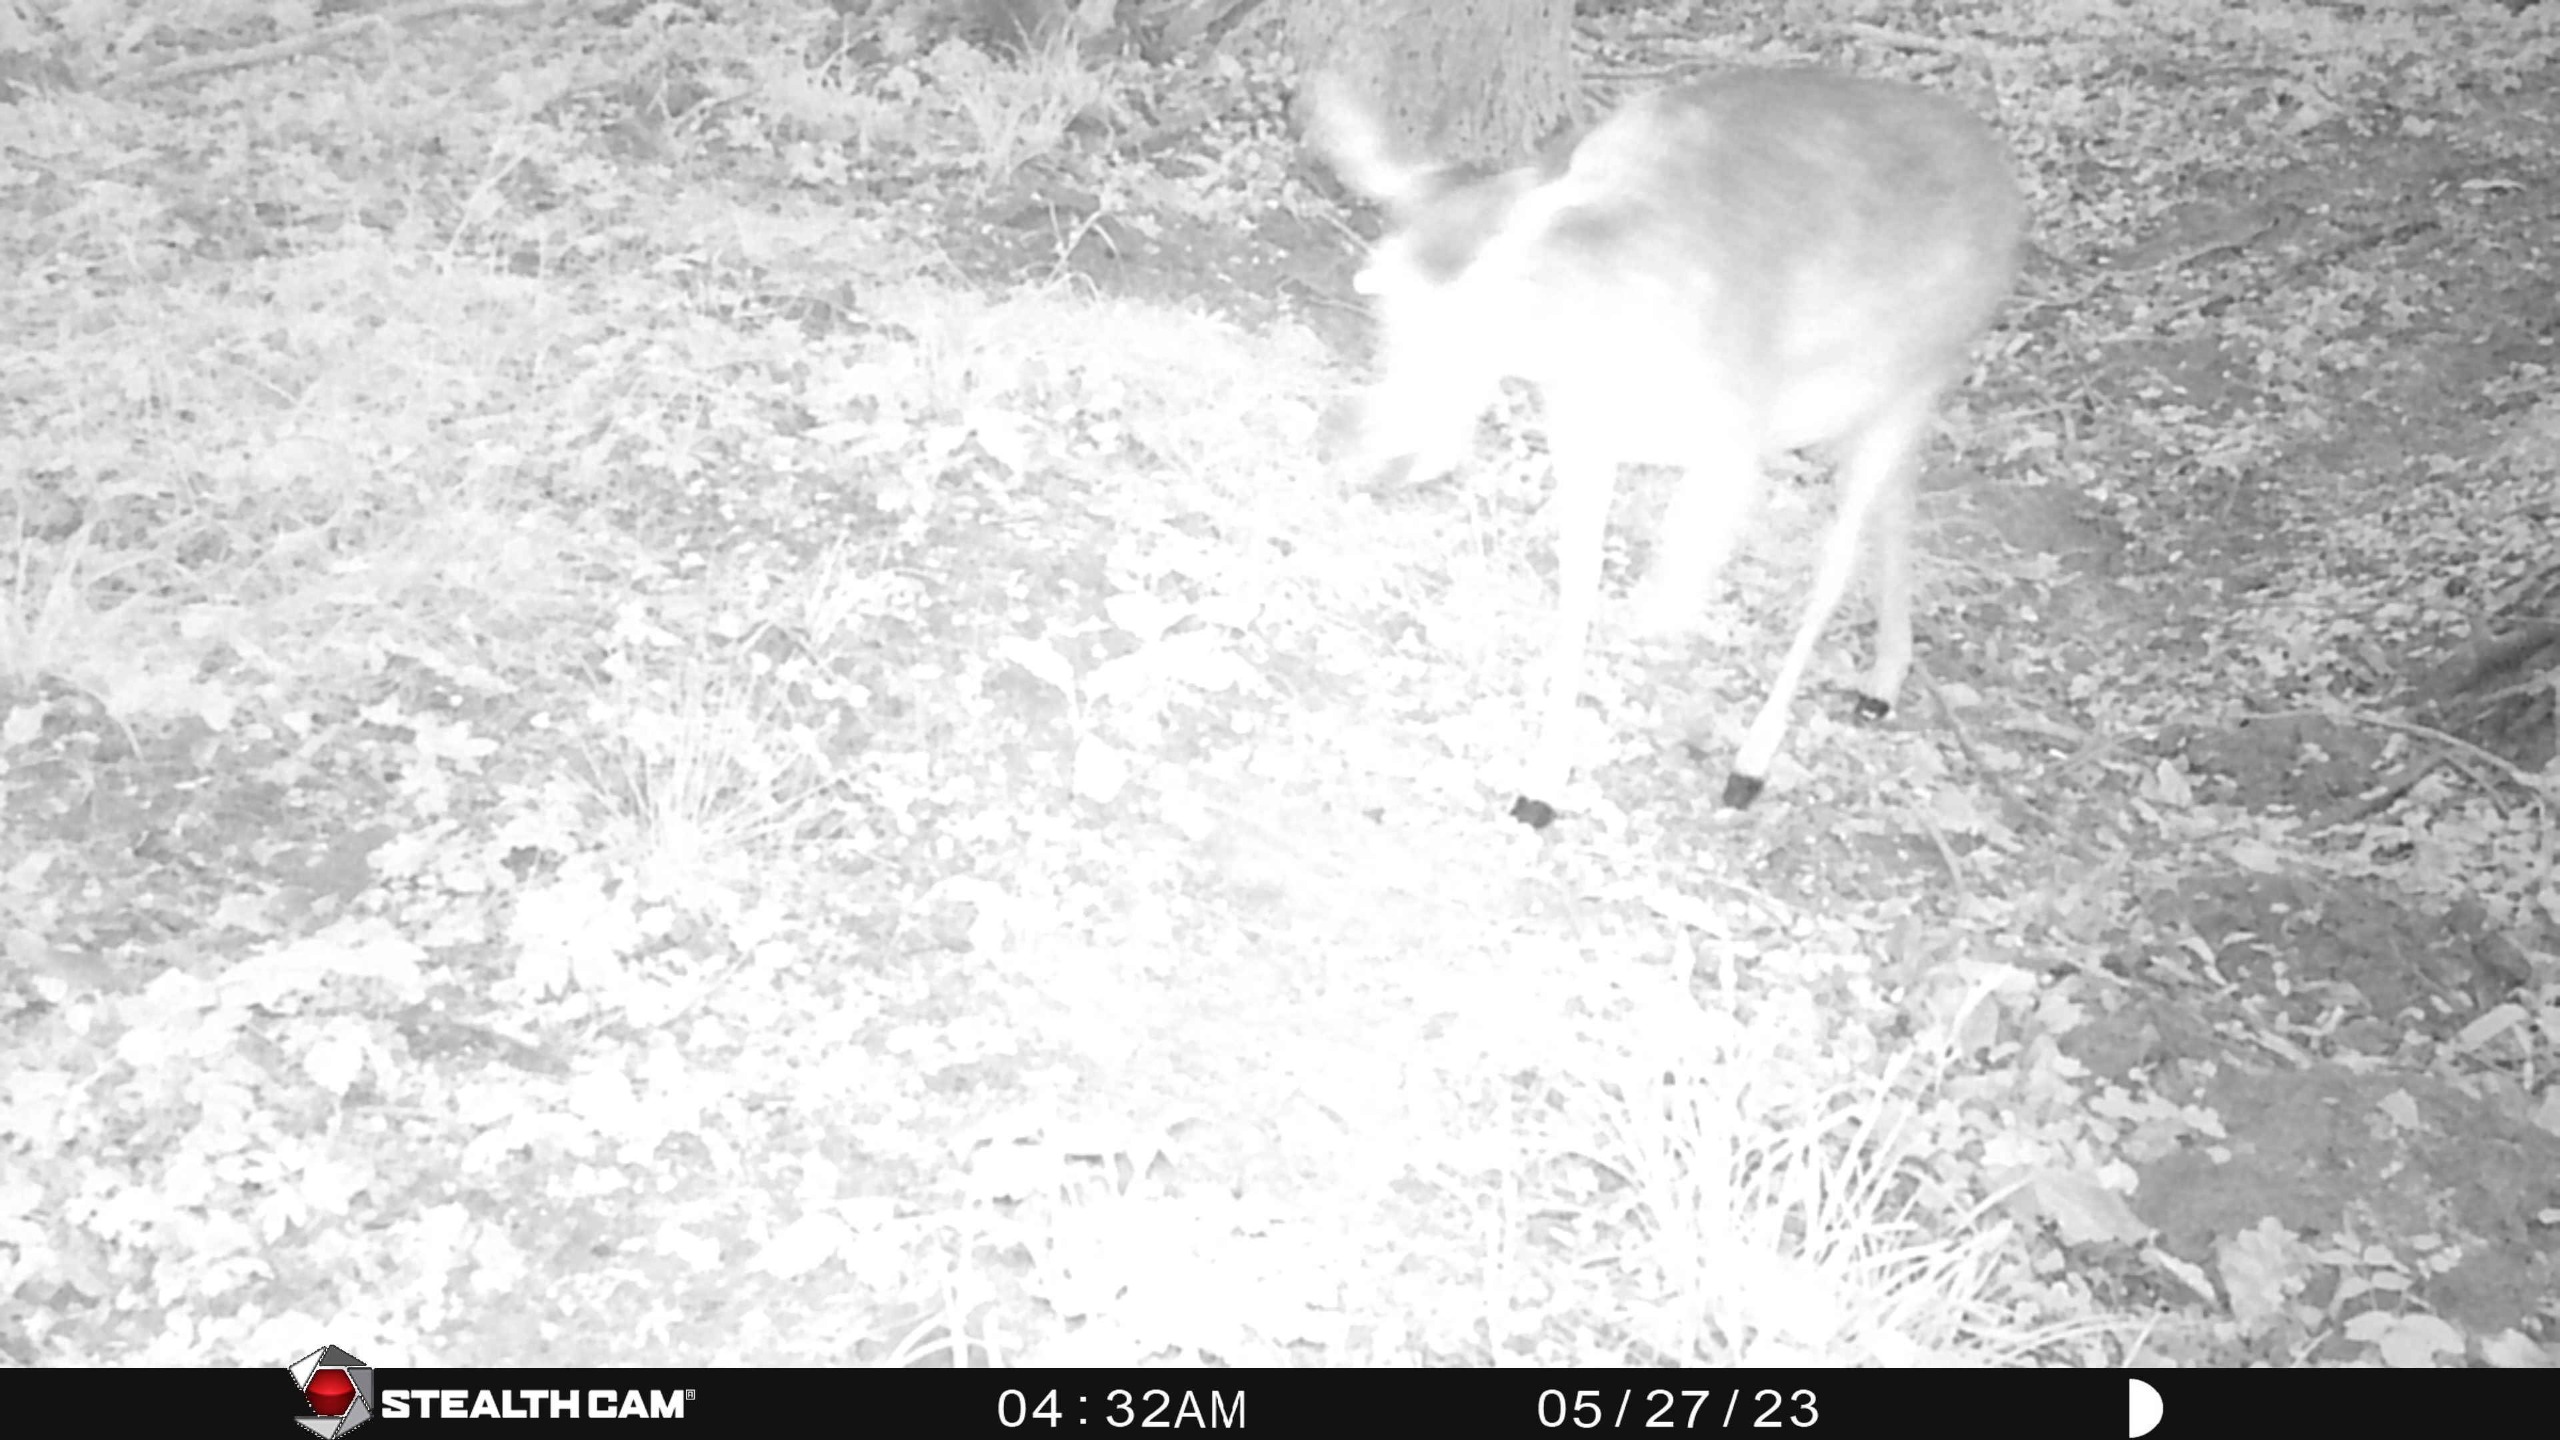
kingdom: Animalia
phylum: Chordata
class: Mammalia
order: Artiodactyla
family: Cervidae
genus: Dama
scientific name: Dama dama
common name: Dådyr
